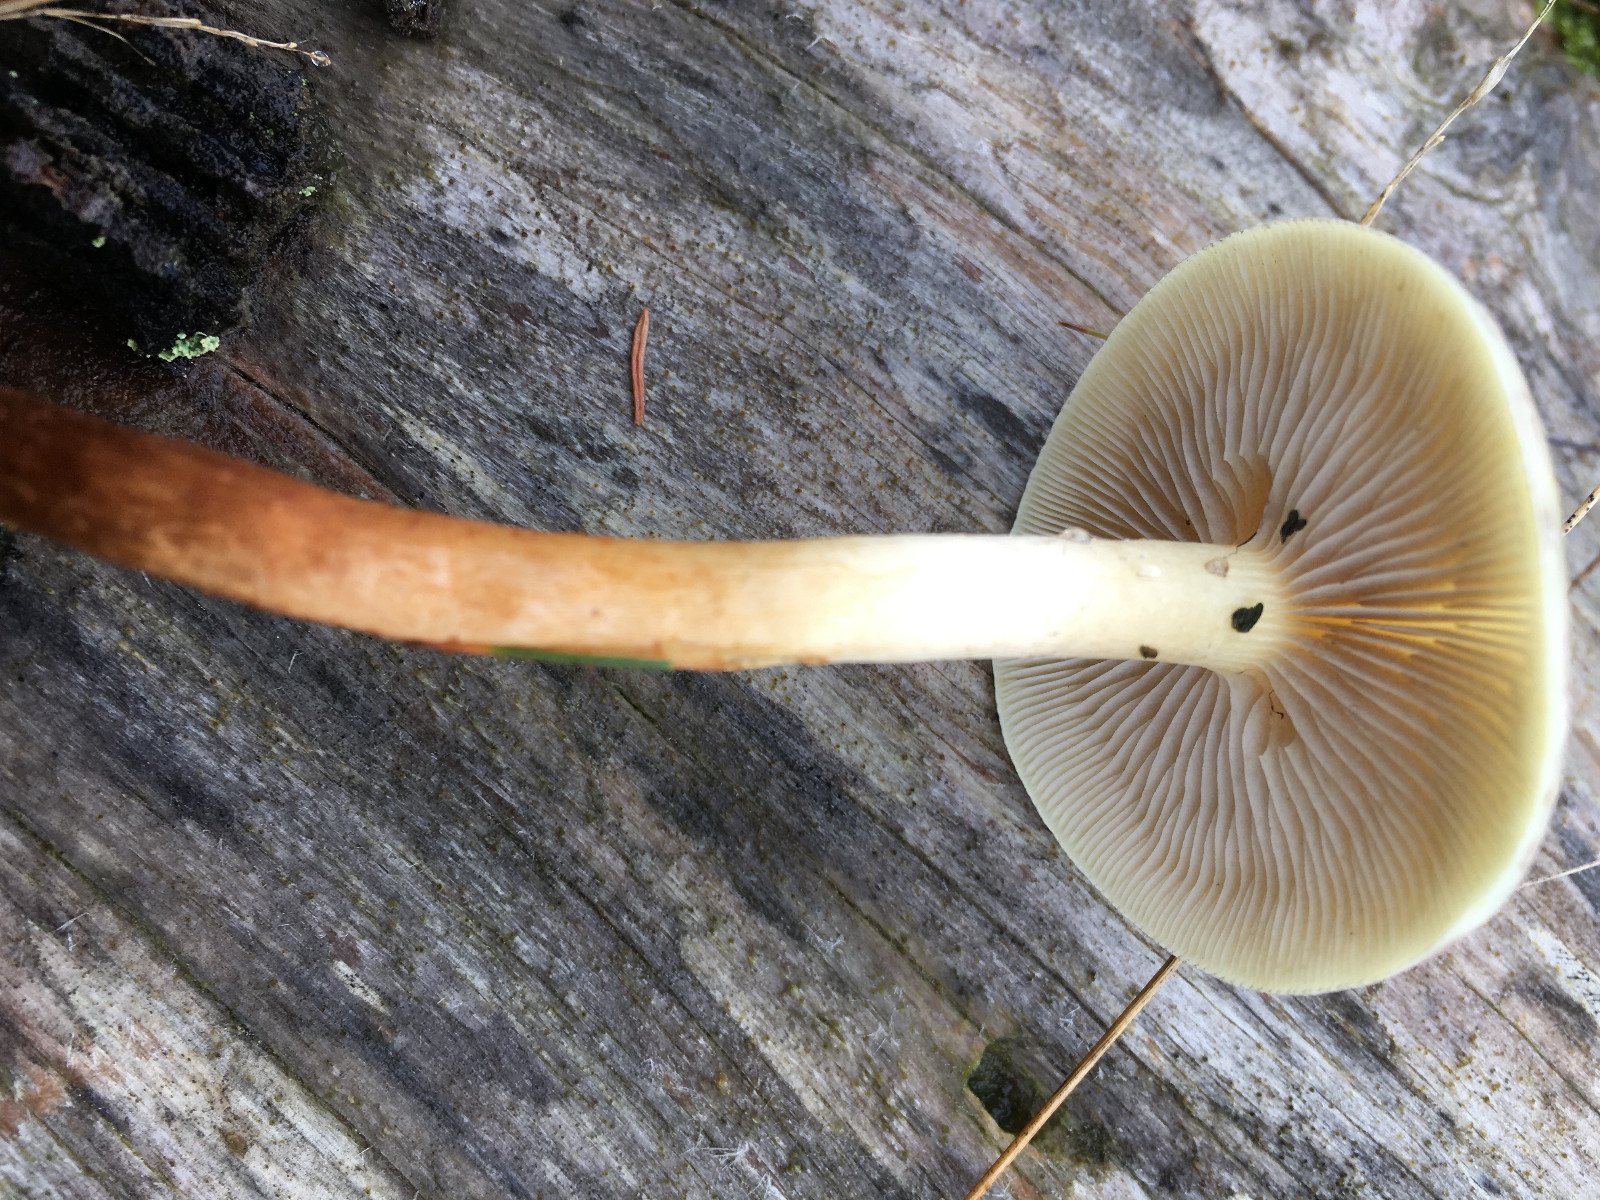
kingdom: Fungi
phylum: Basidiomycota
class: Agaricomycetes
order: Agaricales
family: Strophariaceae
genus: Hypholoma
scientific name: Hypholoma capnoides
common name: gran-svovlhat
